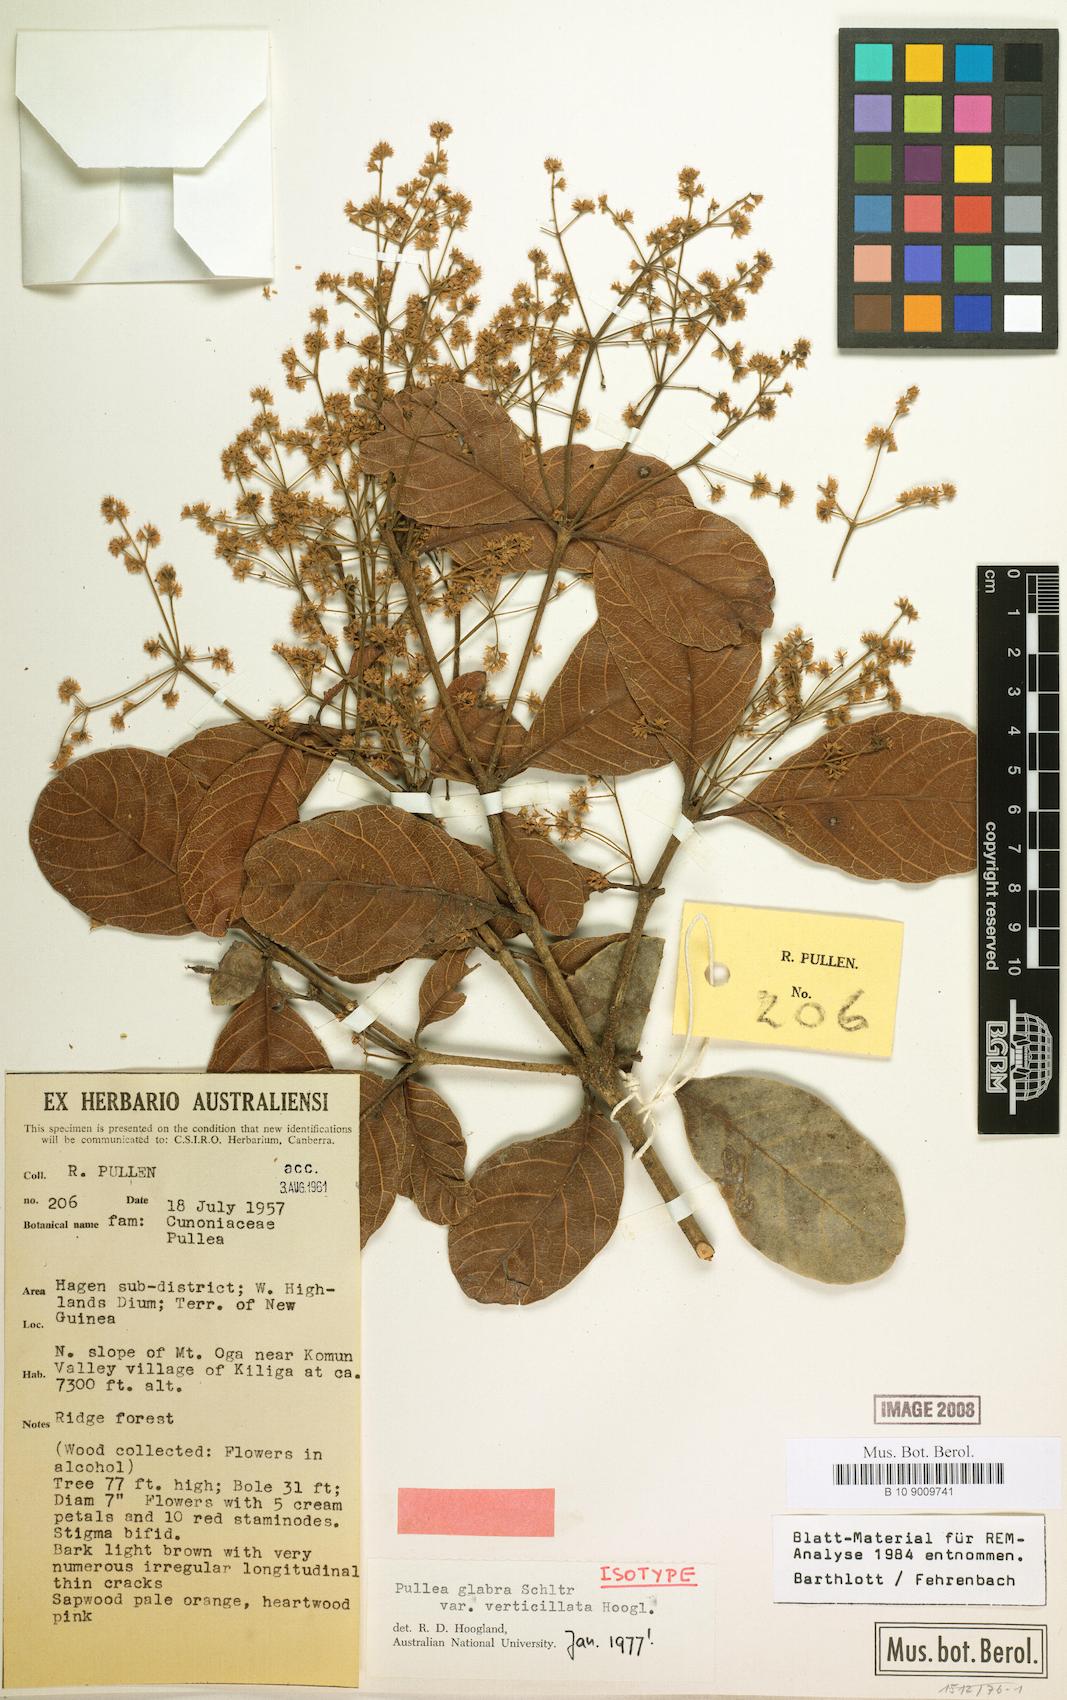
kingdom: Plantae
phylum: Tracheophyta
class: Magnoliopsida
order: Oxalidales
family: Cunoniaceae
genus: Pullea
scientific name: Pullea glabra
